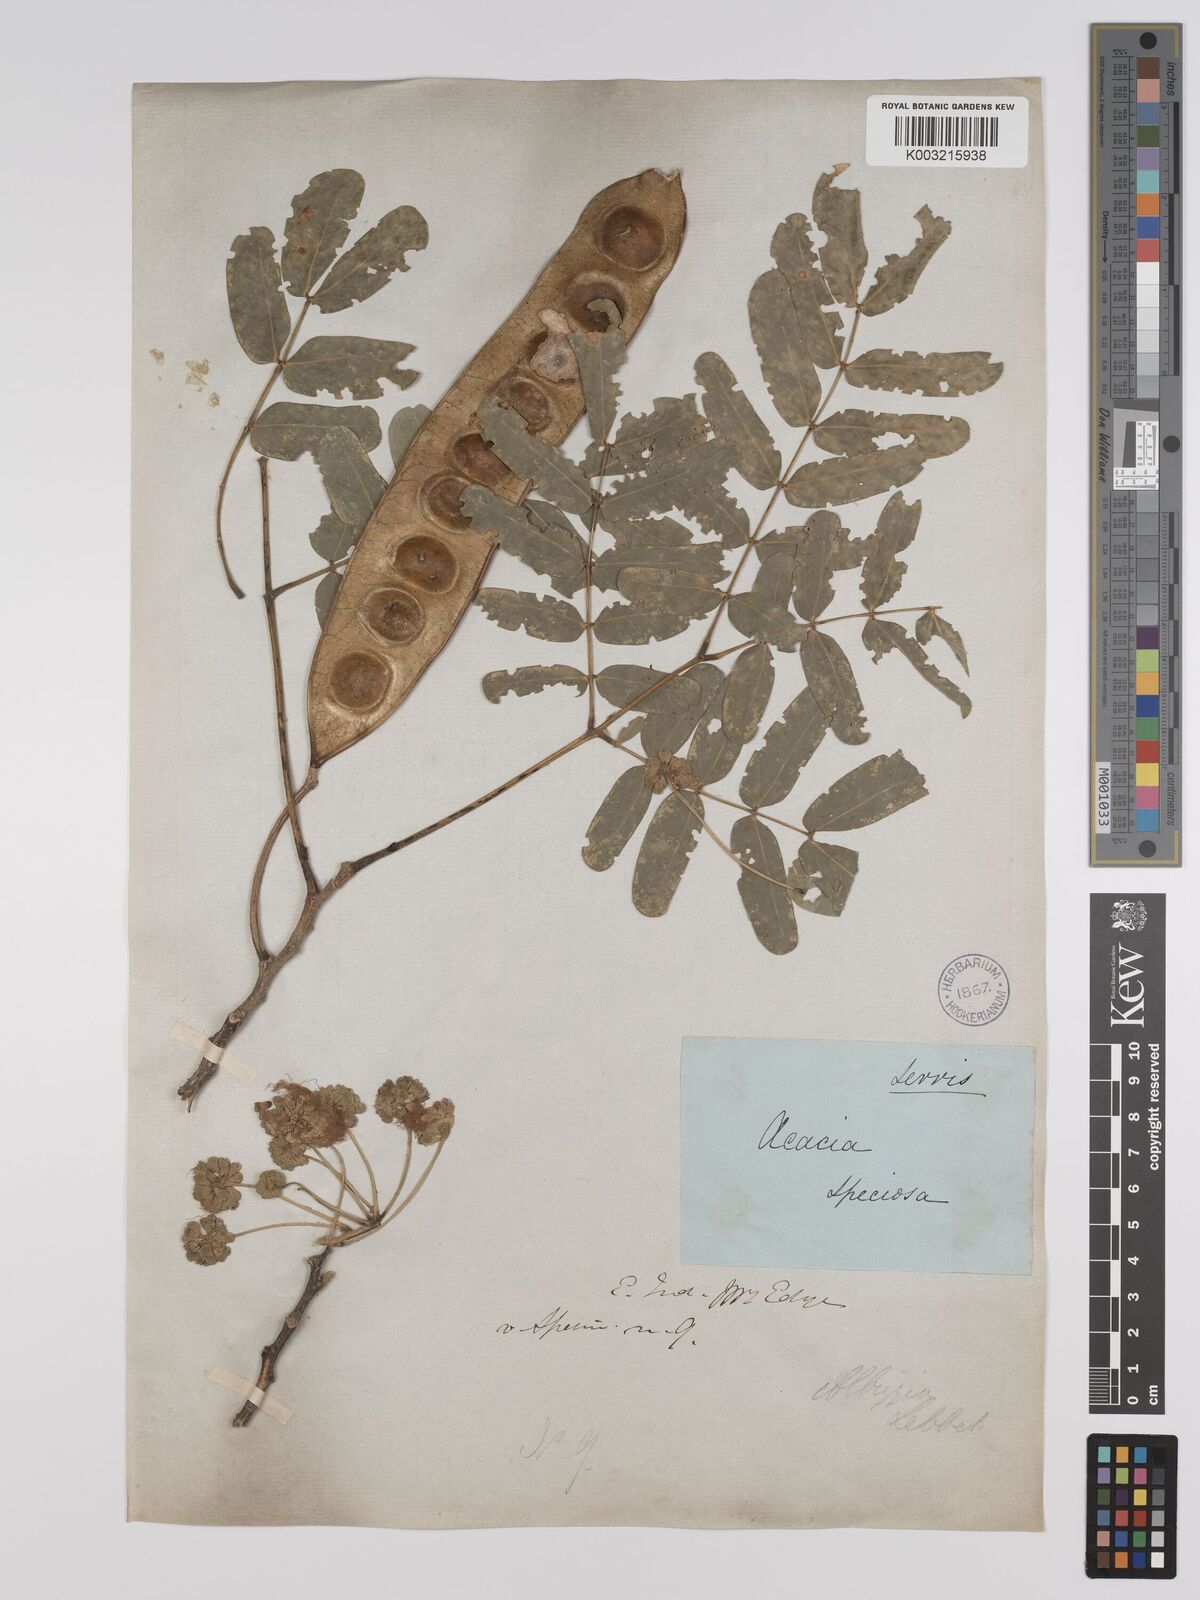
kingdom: Plantae
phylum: Tracheophyta
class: Magnoliopsida
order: Fabales
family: Fabaceae
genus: Albizia
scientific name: Albizia lebbeck
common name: Woman's tongue
